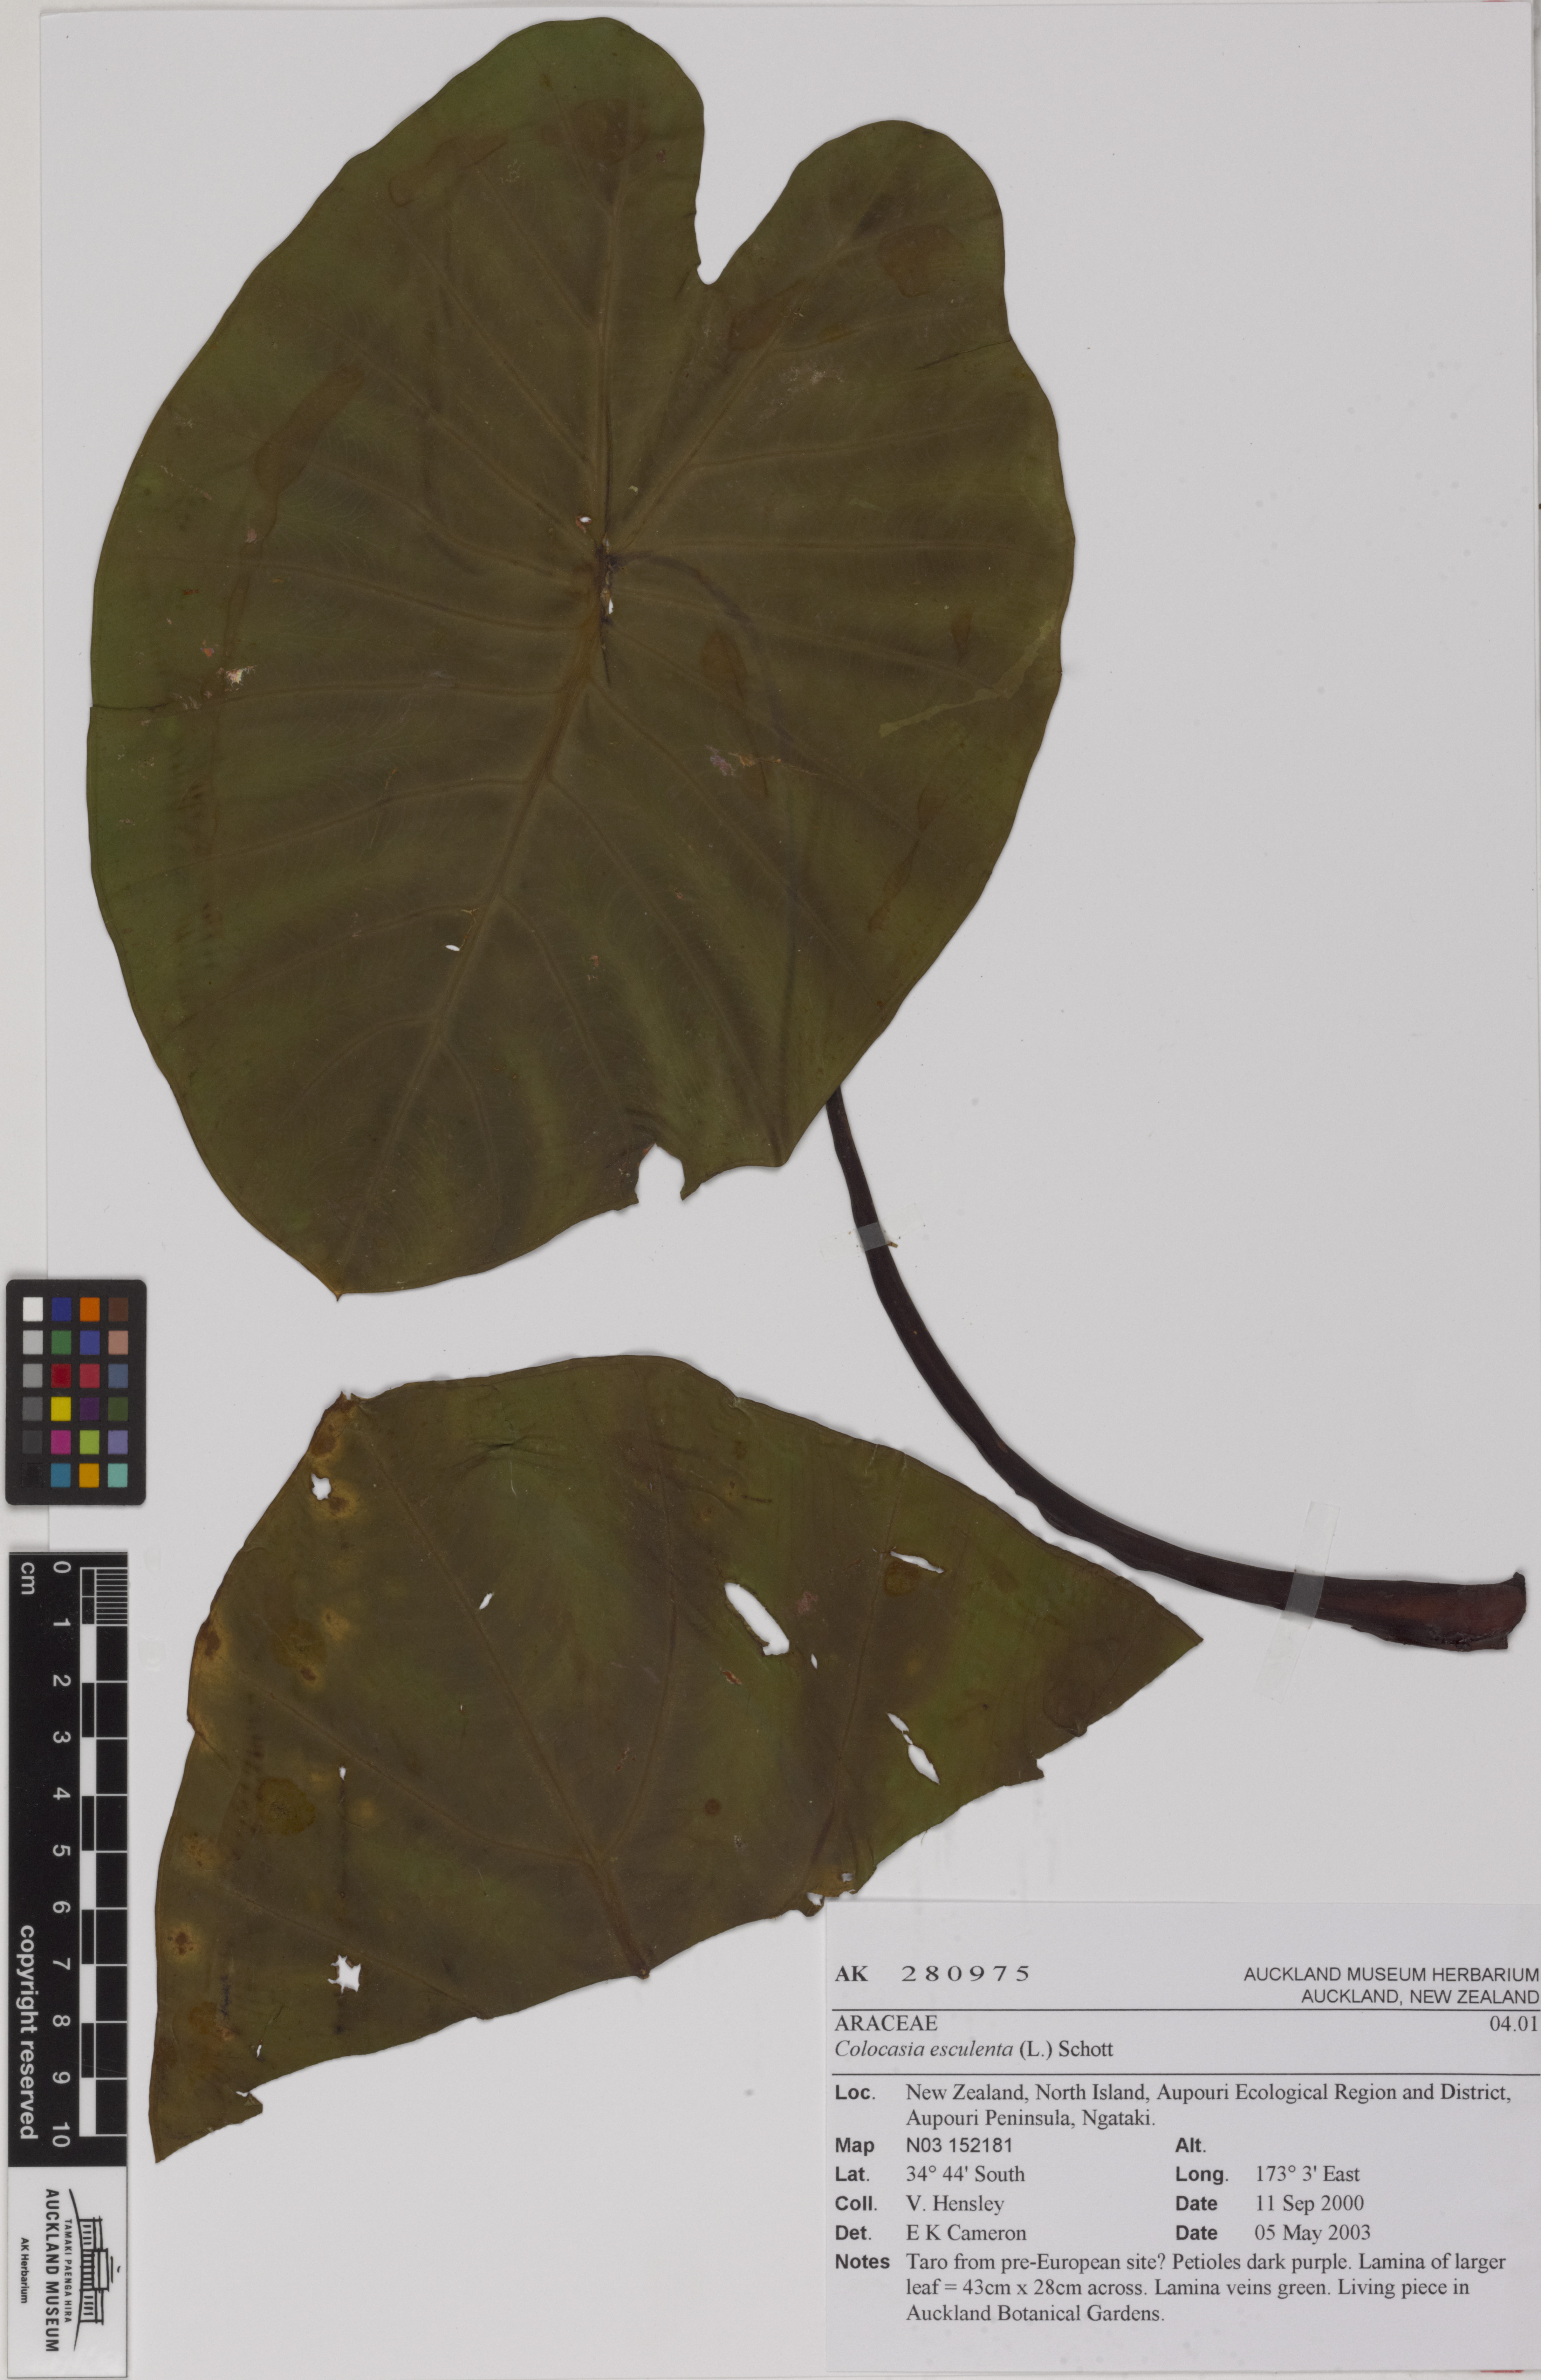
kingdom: Plantae
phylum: Tracheophyta
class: Liliopsida
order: Alismatales
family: Araceae
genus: Colocasia
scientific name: Colocasia esculenta
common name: Taro
